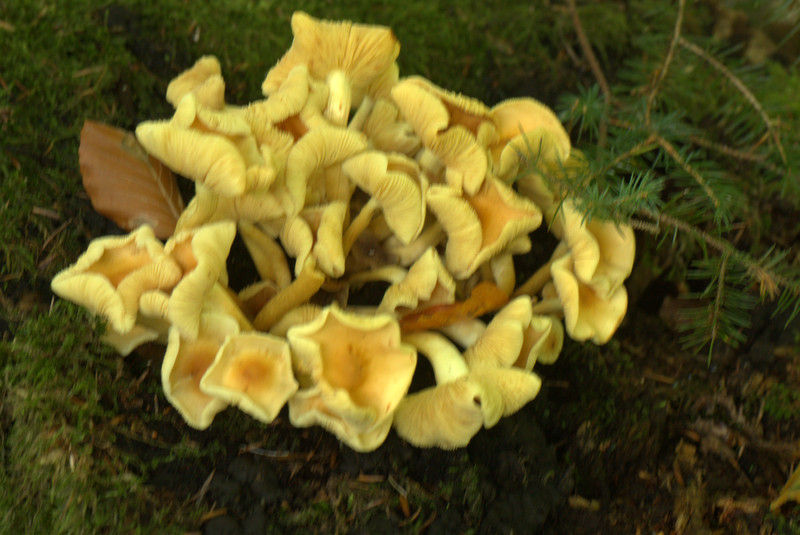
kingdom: Fungi
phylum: Basidiomycota
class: Agaricomycetes
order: Agaricales
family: Strophariaceae
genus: Hypholoma
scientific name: Hypholoma fasciculare
